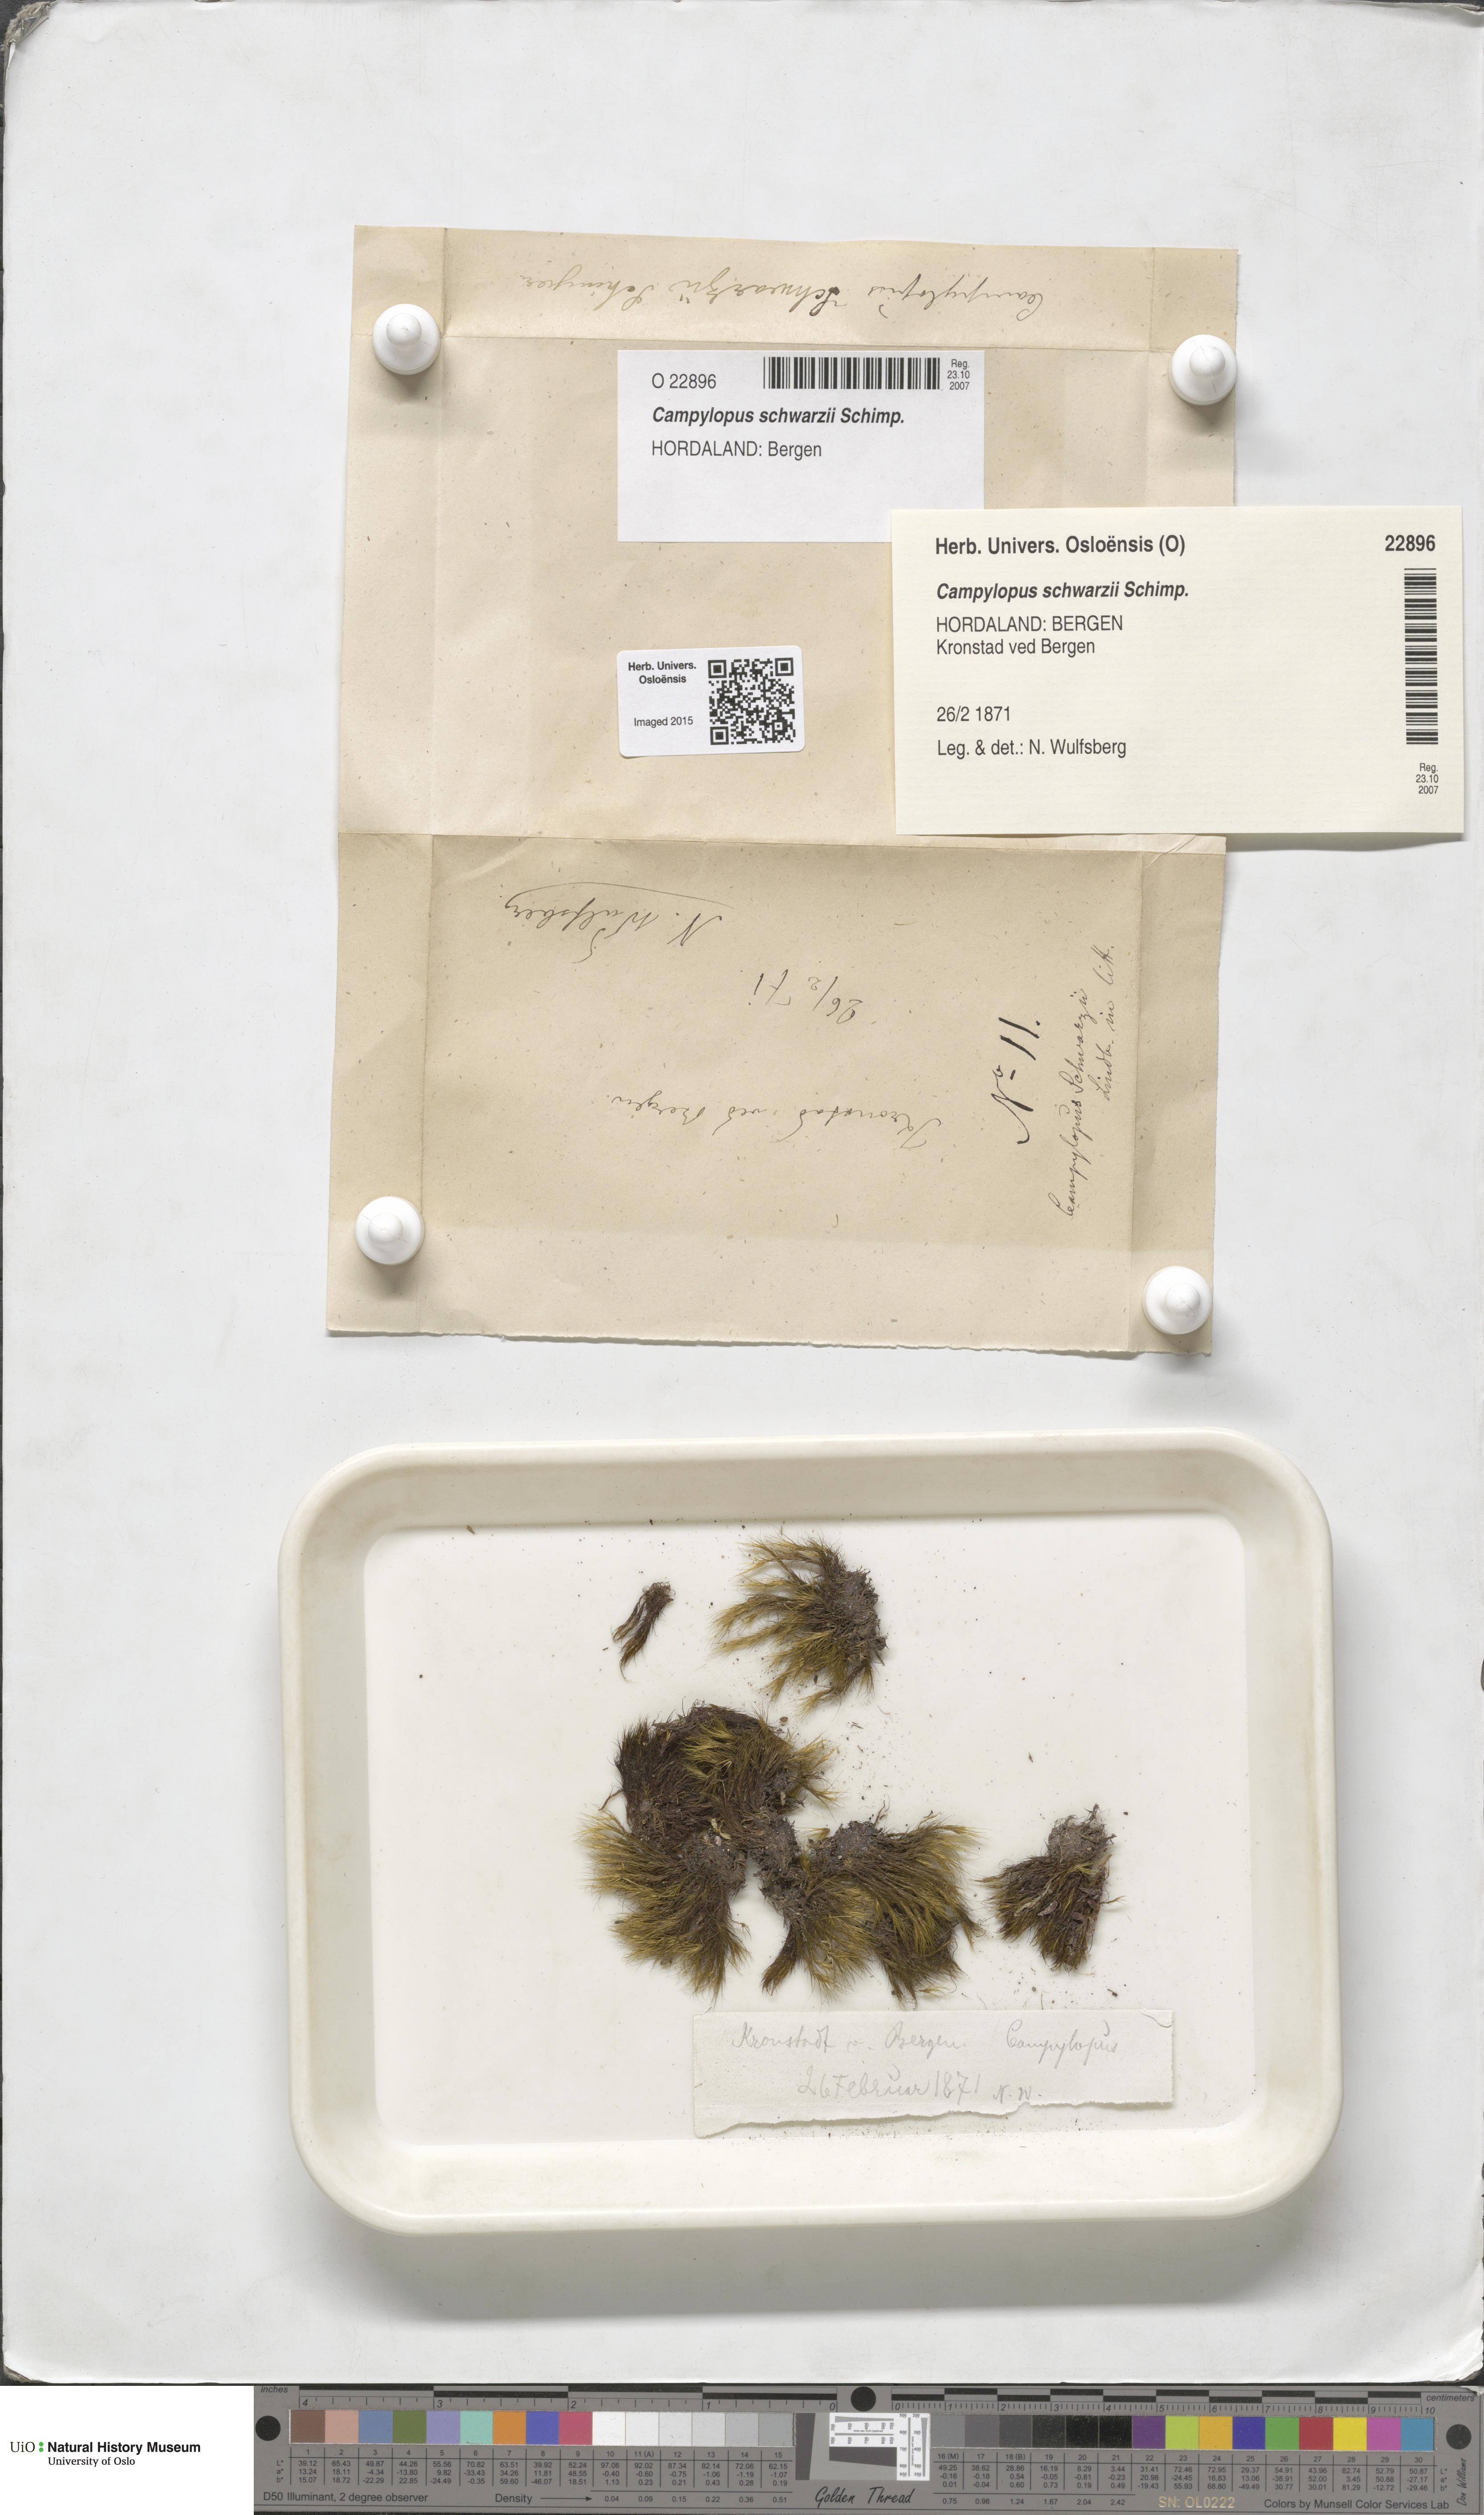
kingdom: Plantae
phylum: Bryophyta
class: Bryopsida
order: Dicranales
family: Leucobryaceae
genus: Campylopus
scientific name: Campylopus gracilis
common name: Schwarz's swan-neck moss
